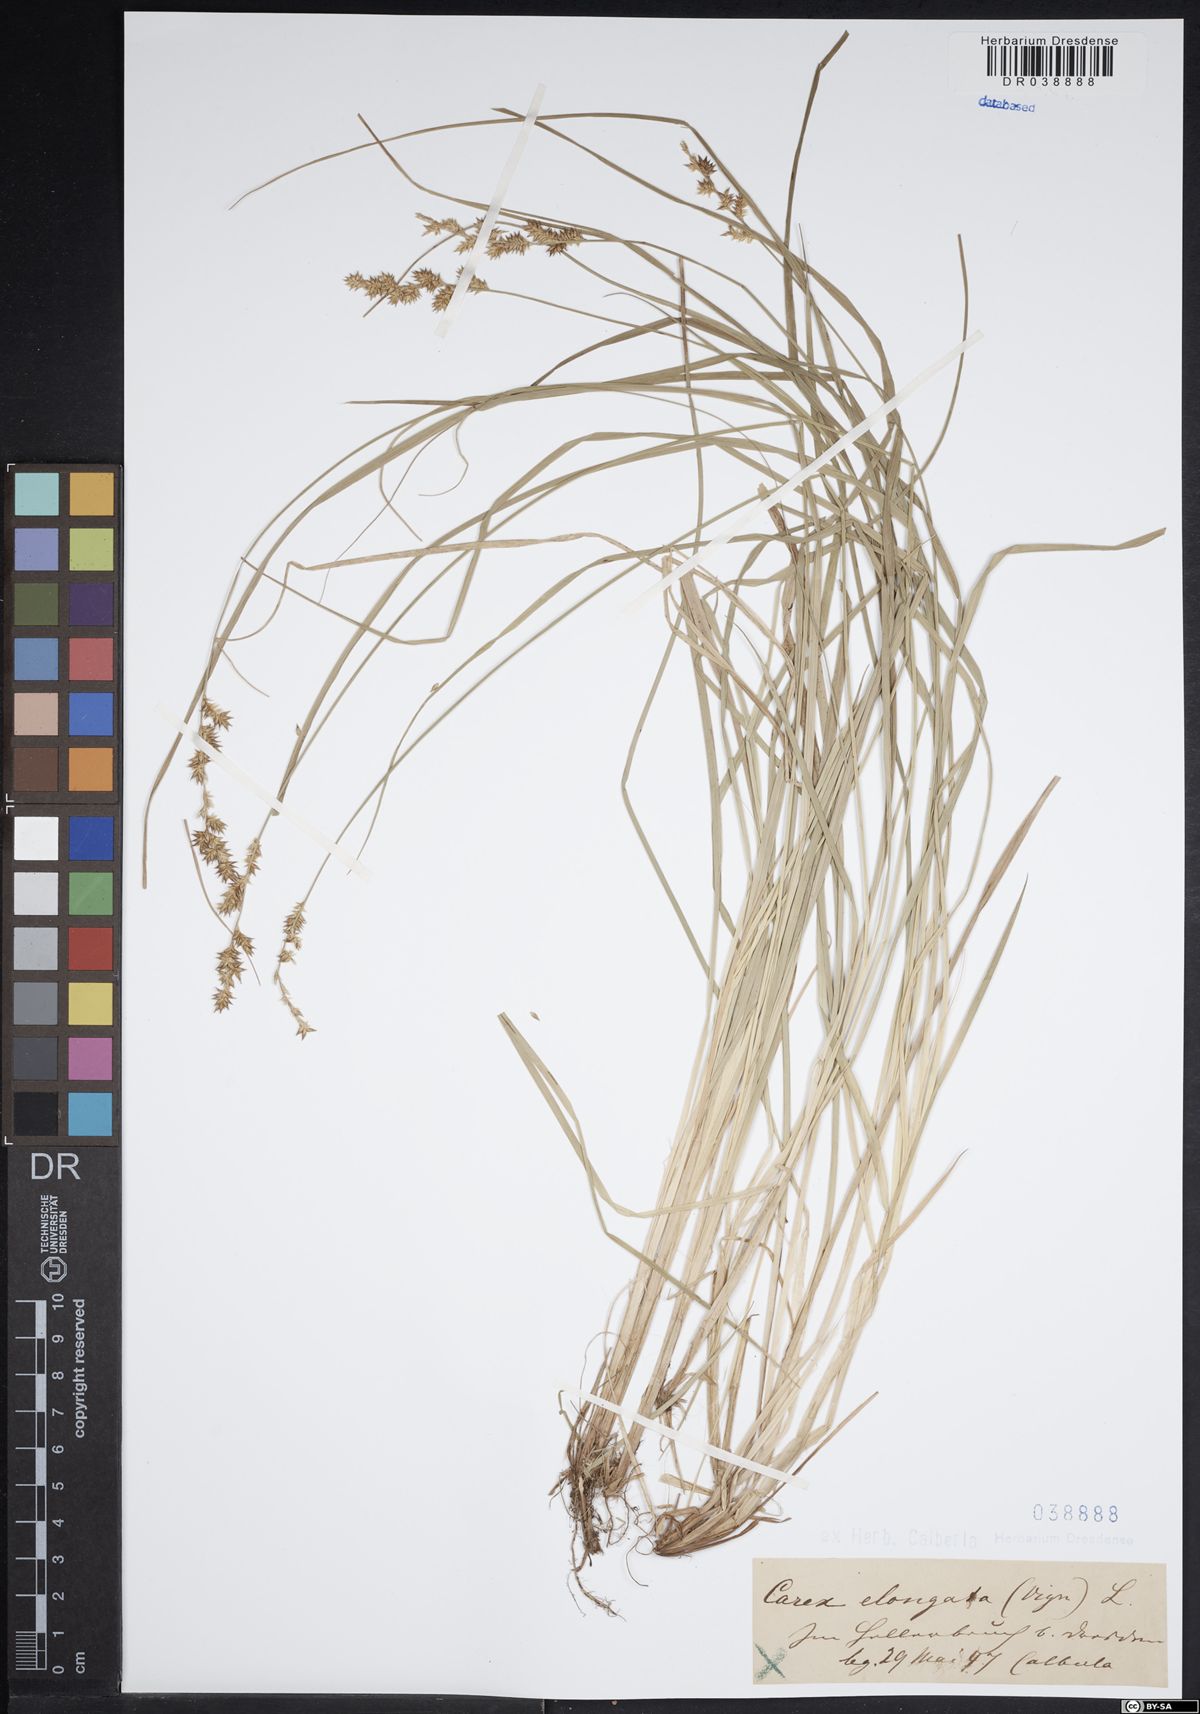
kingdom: Plantae
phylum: Tracheophyta
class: Liliopsida
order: Poales
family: Cyperaceae
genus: Carex
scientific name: Carex elongata
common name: Elongated sedge
